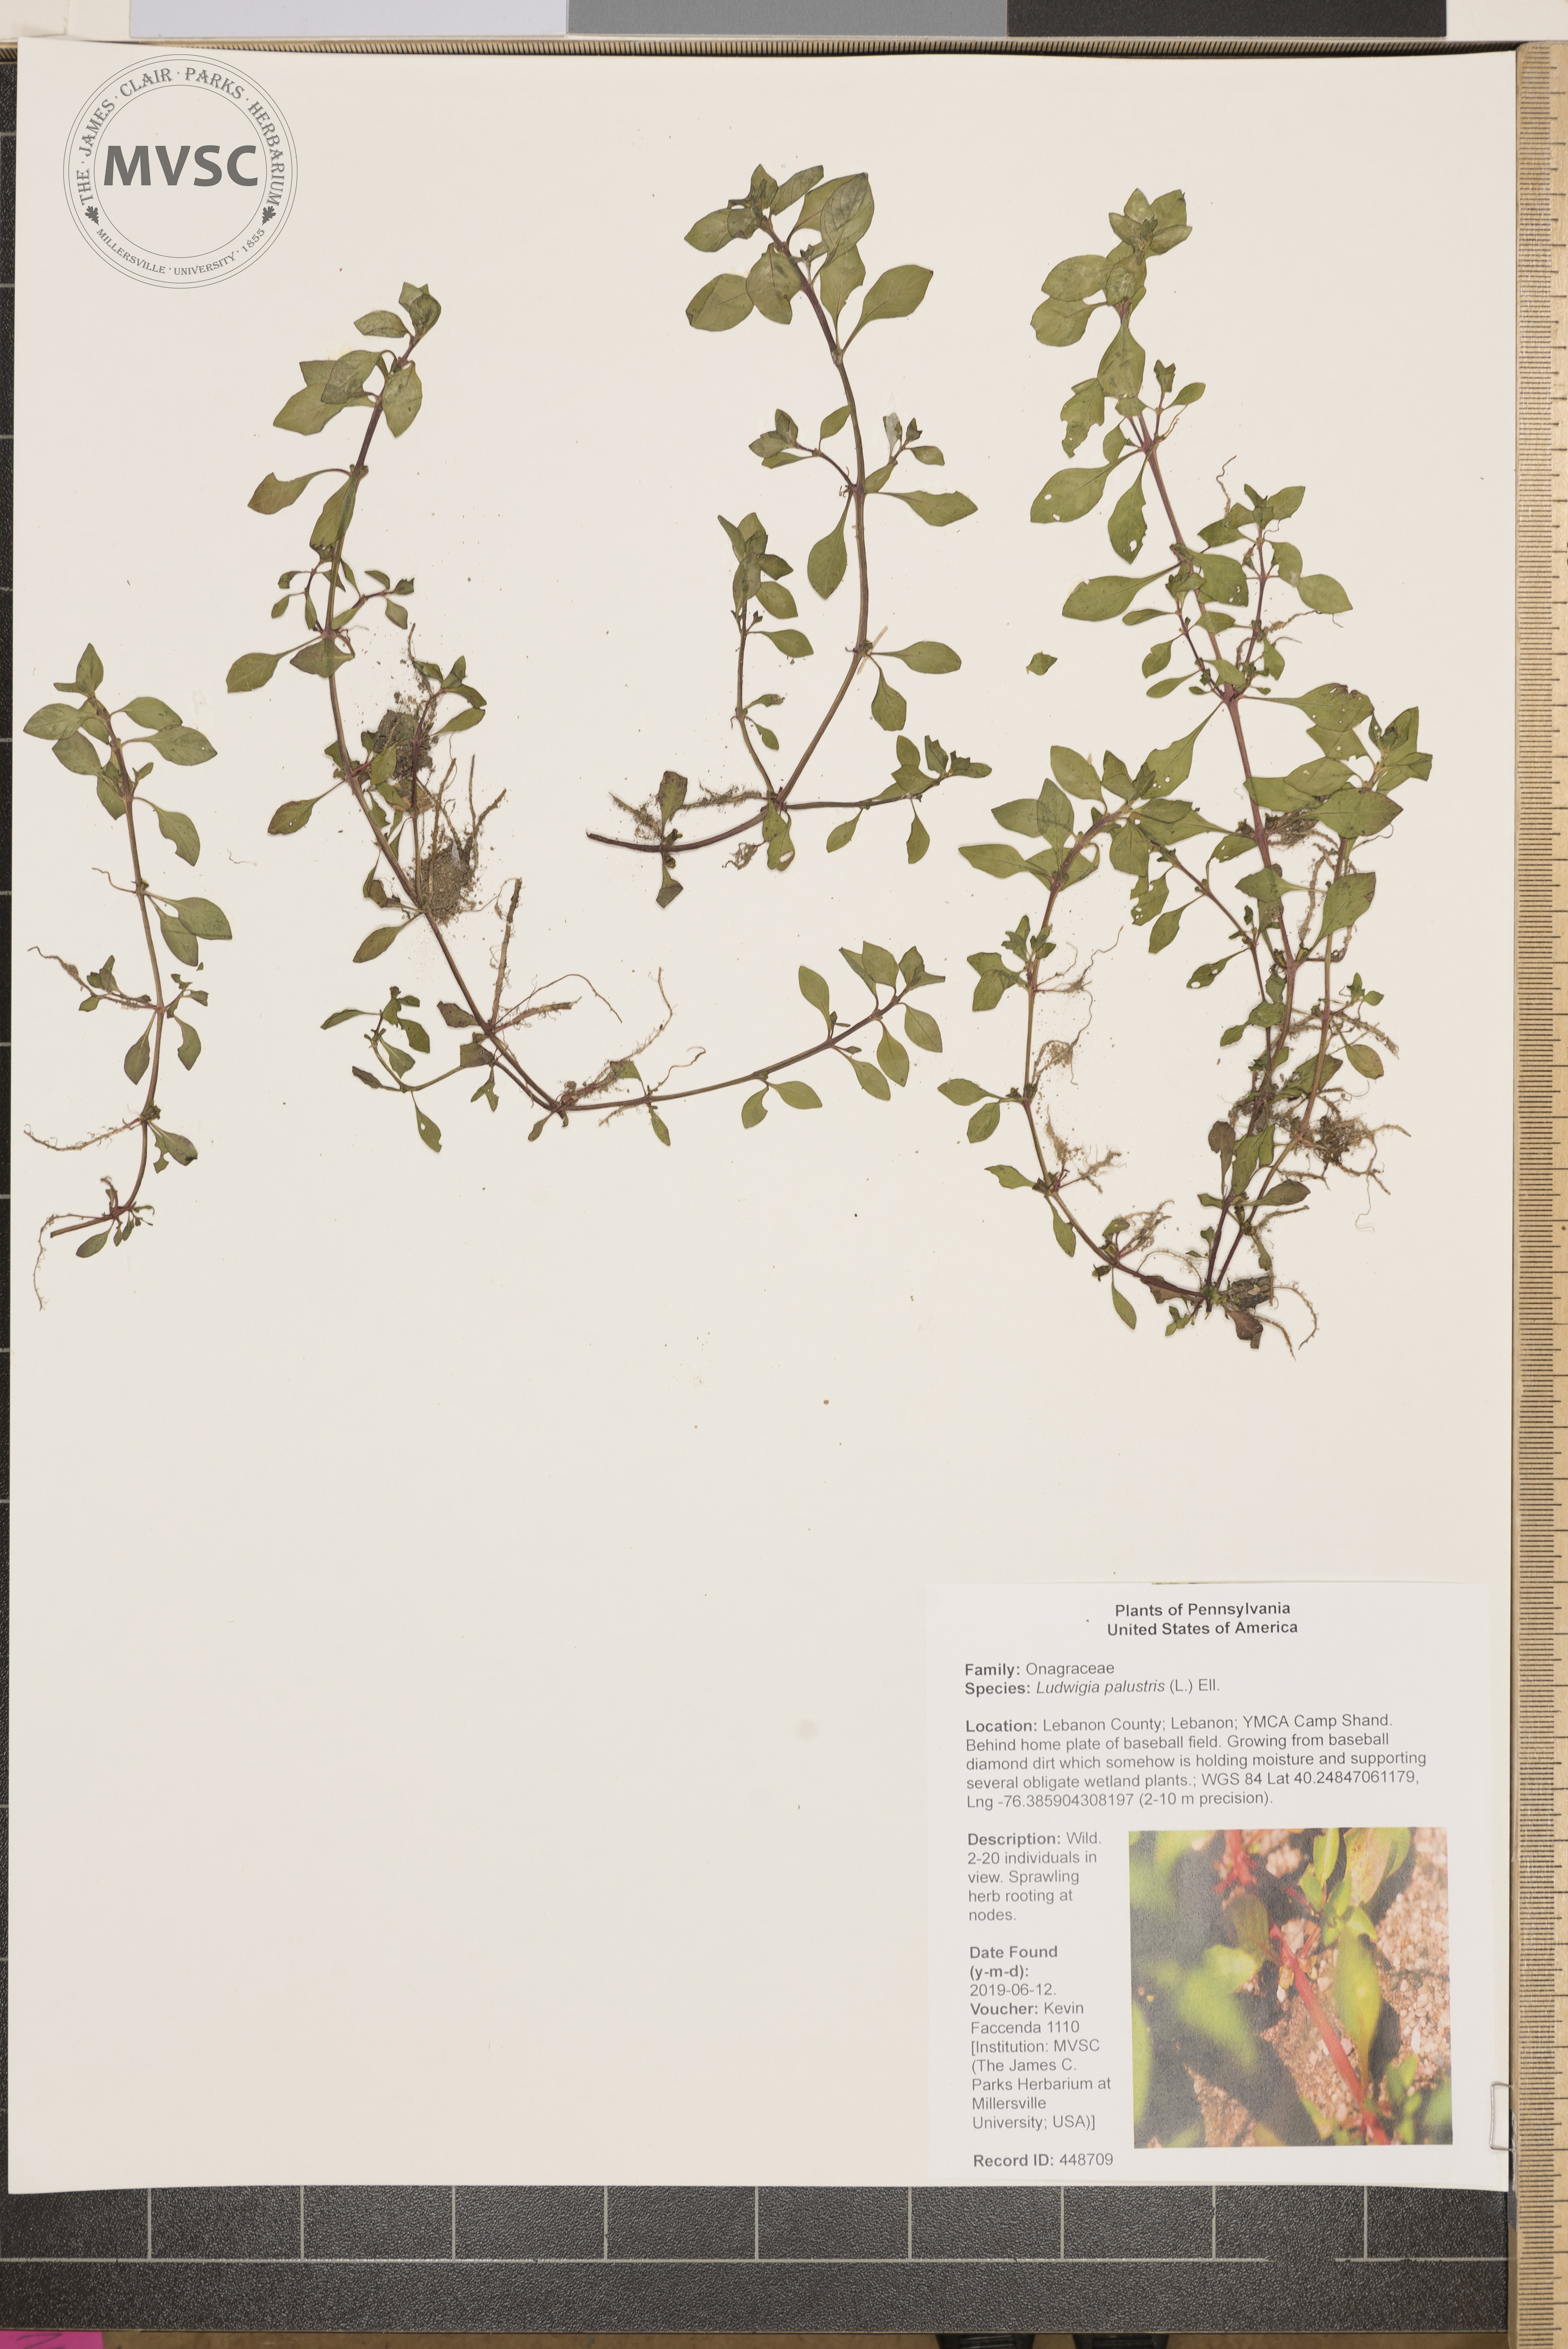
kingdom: Plantae
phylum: Tracheophyta
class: Magnoliopsida
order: Myrtales
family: Onagraceae
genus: Ludwigia
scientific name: Ludwigia palustris
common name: Hampshire-purslane
